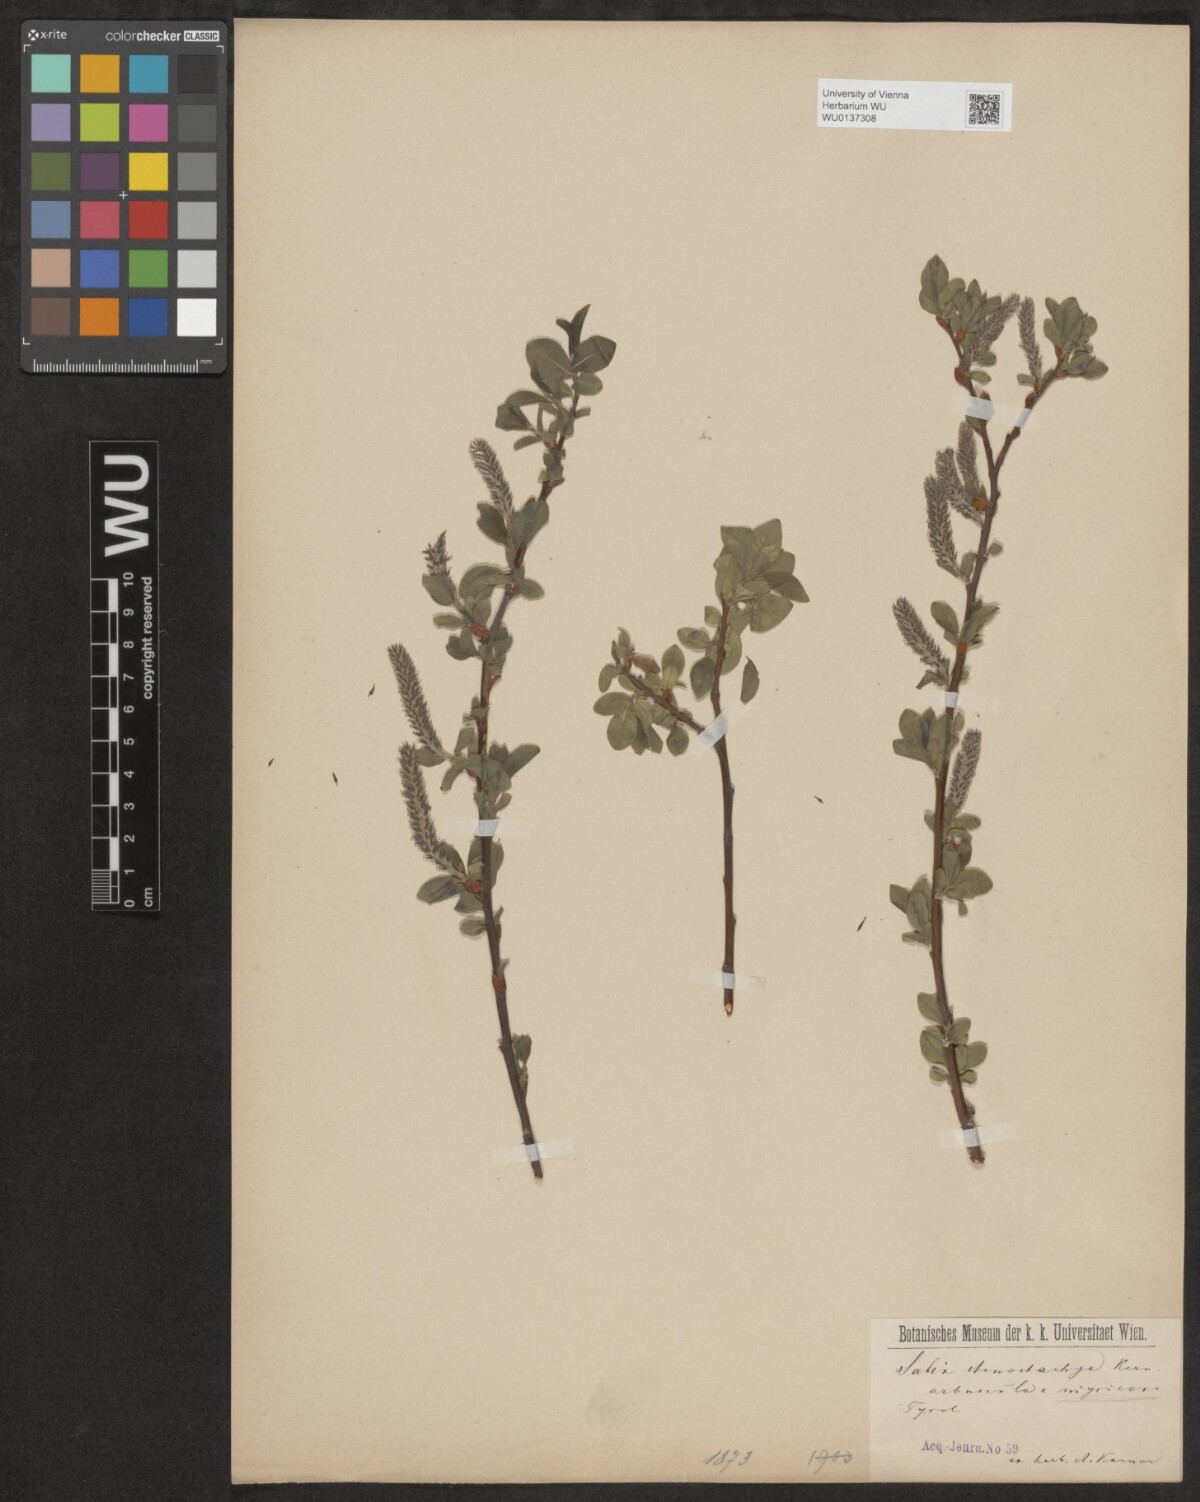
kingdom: Plantae
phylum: Tracheophyta
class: Magnoliopsida
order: Malpighiales
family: Salicaceae
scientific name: Salicaceae
